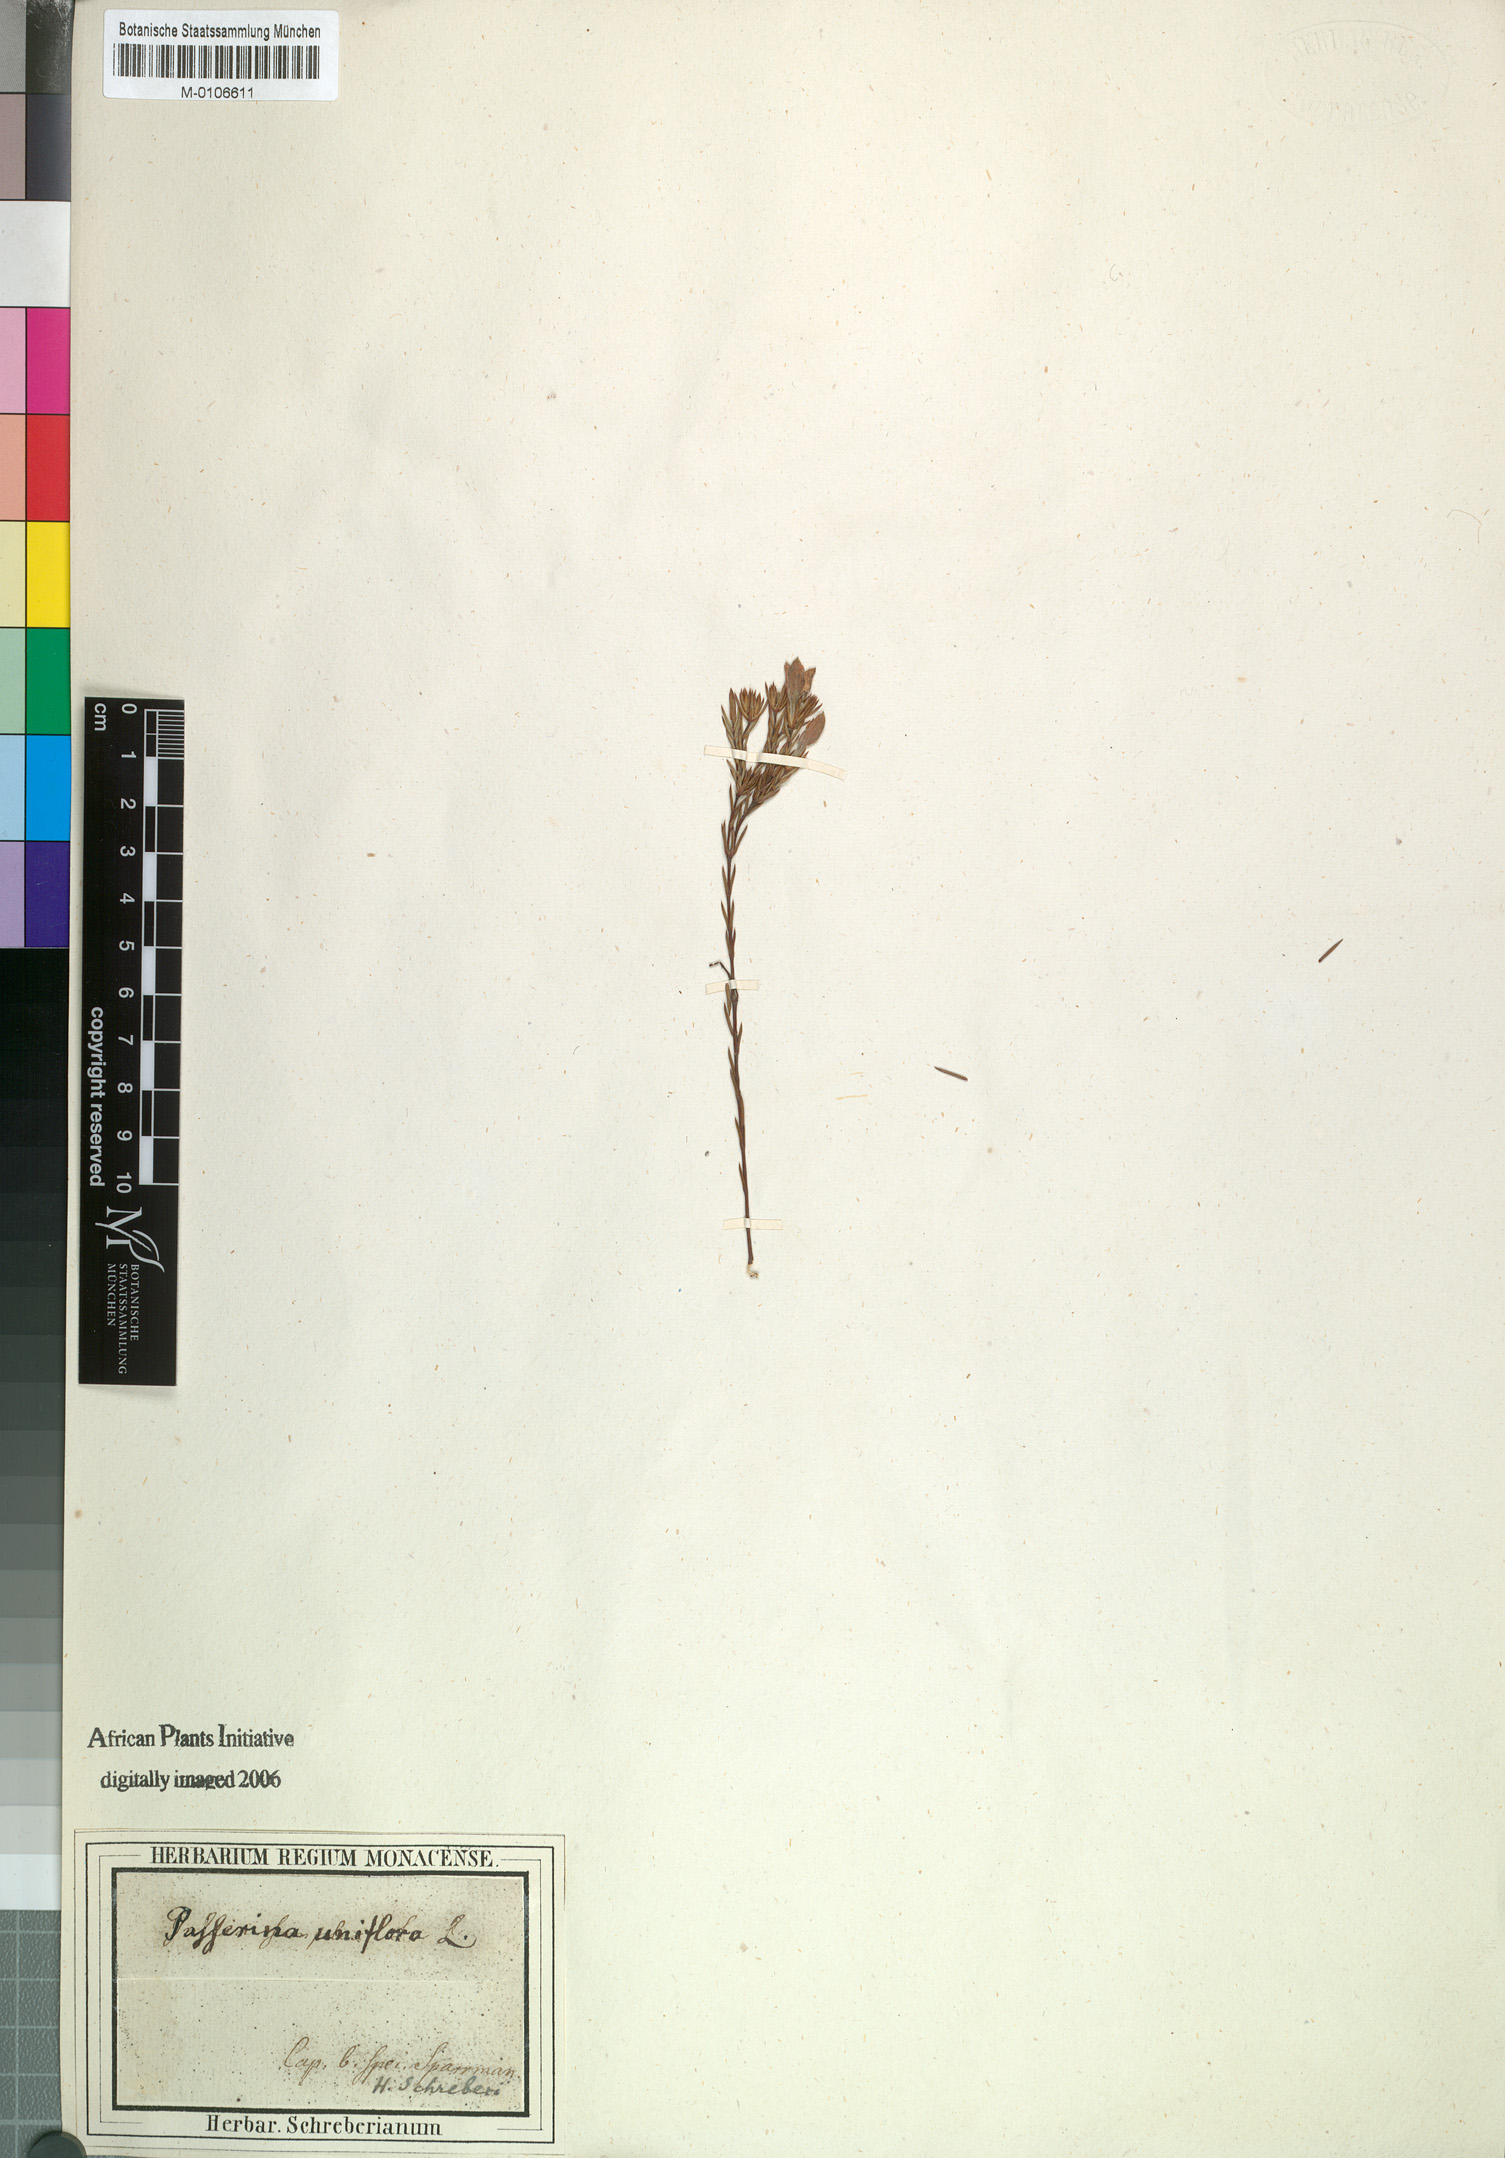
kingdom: Plantae
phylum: Tracheophyta
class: Magnoliopsida
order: Malvales
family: Thymelaeaceae
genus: Lachnaea
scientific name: Lachnaea uniflora
